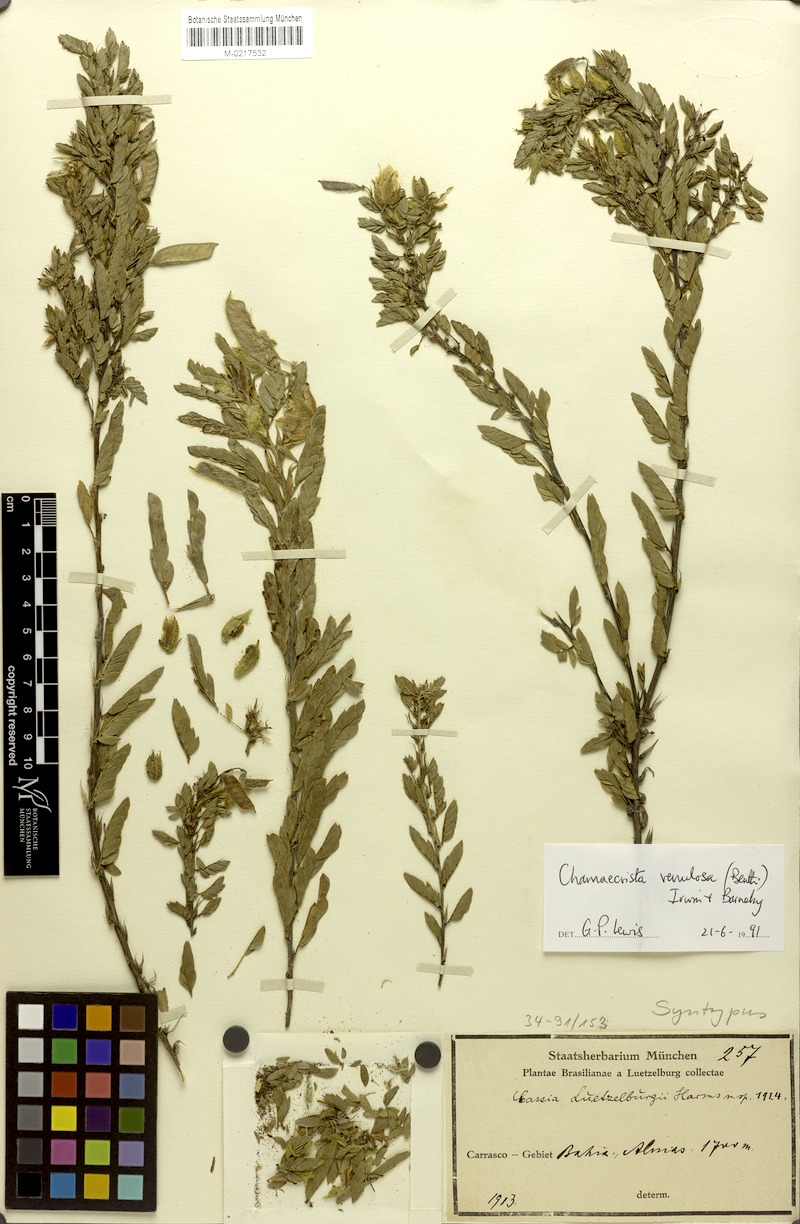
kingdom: Plantae
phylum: Tracheophyta
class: Magnoliopsida
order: Fabales
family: Fabaceae
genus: Chamaecrista
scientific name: Chamaecrista venulosa
